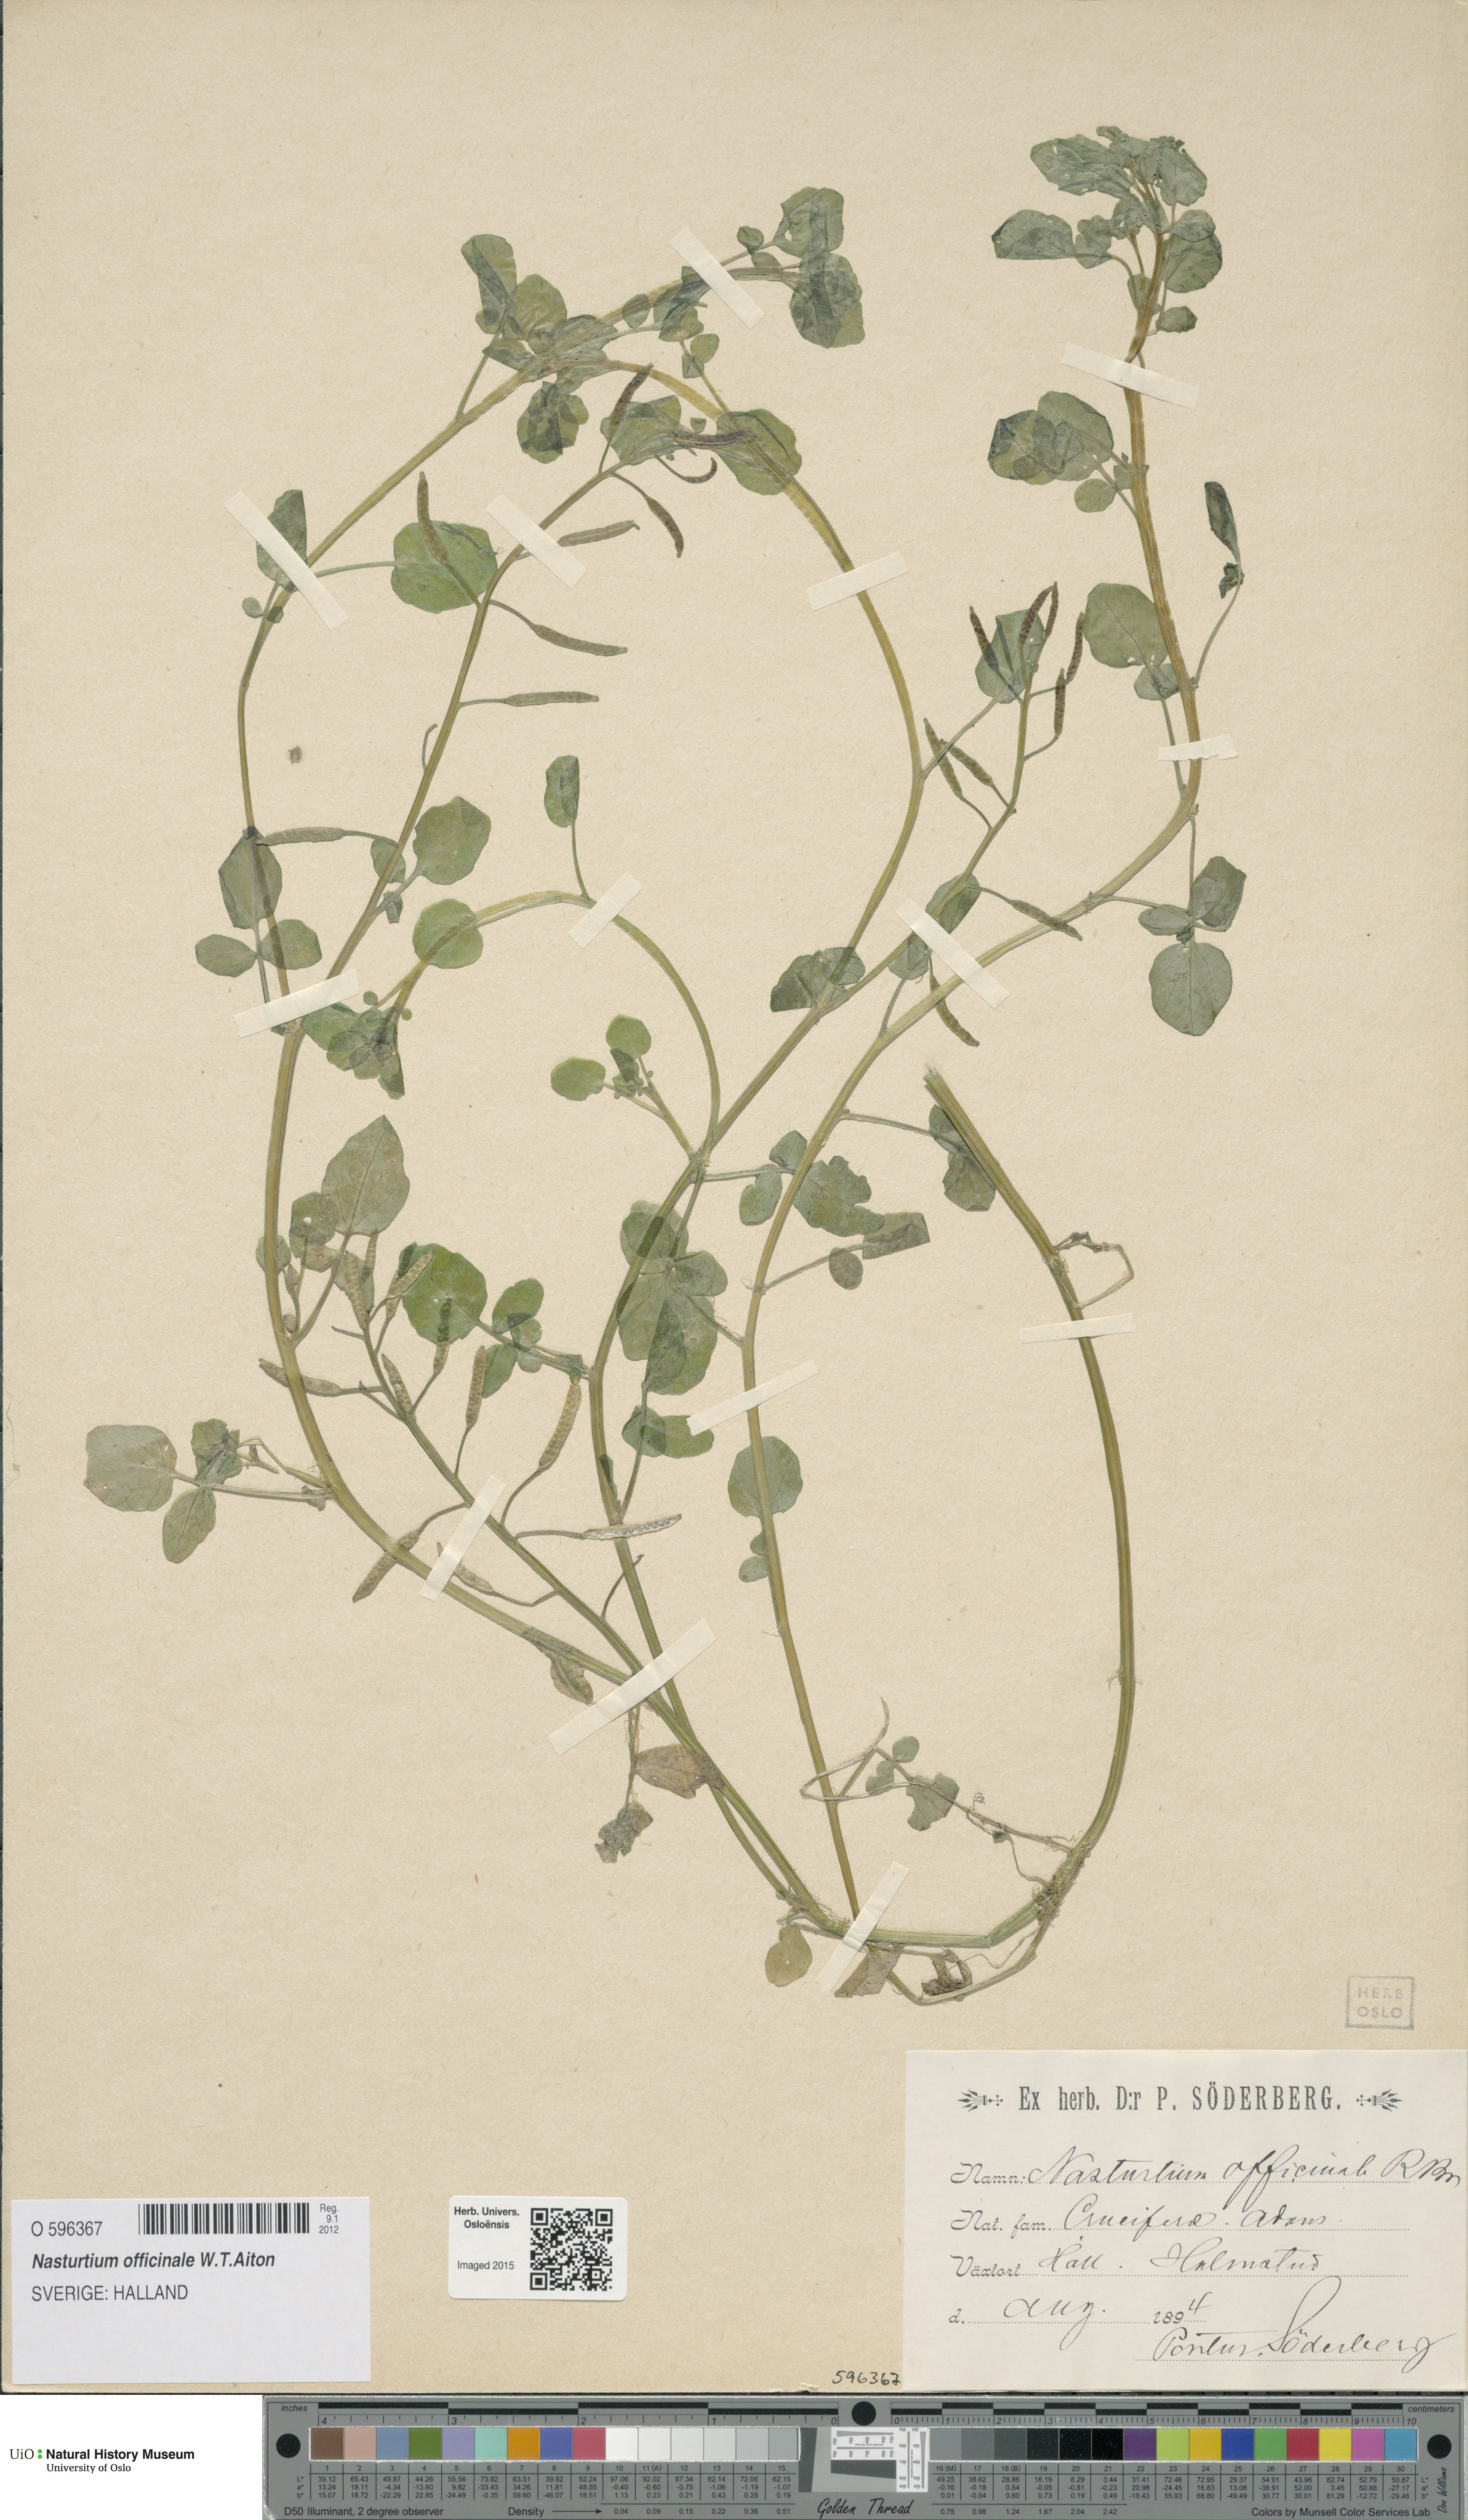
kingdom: Plantae
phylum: Tracheophyta
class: Magnoliopsida
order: Brassicales
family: Brassicaceae
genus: Nasturtium
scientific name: Nasturtium officinale
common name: Watercress
